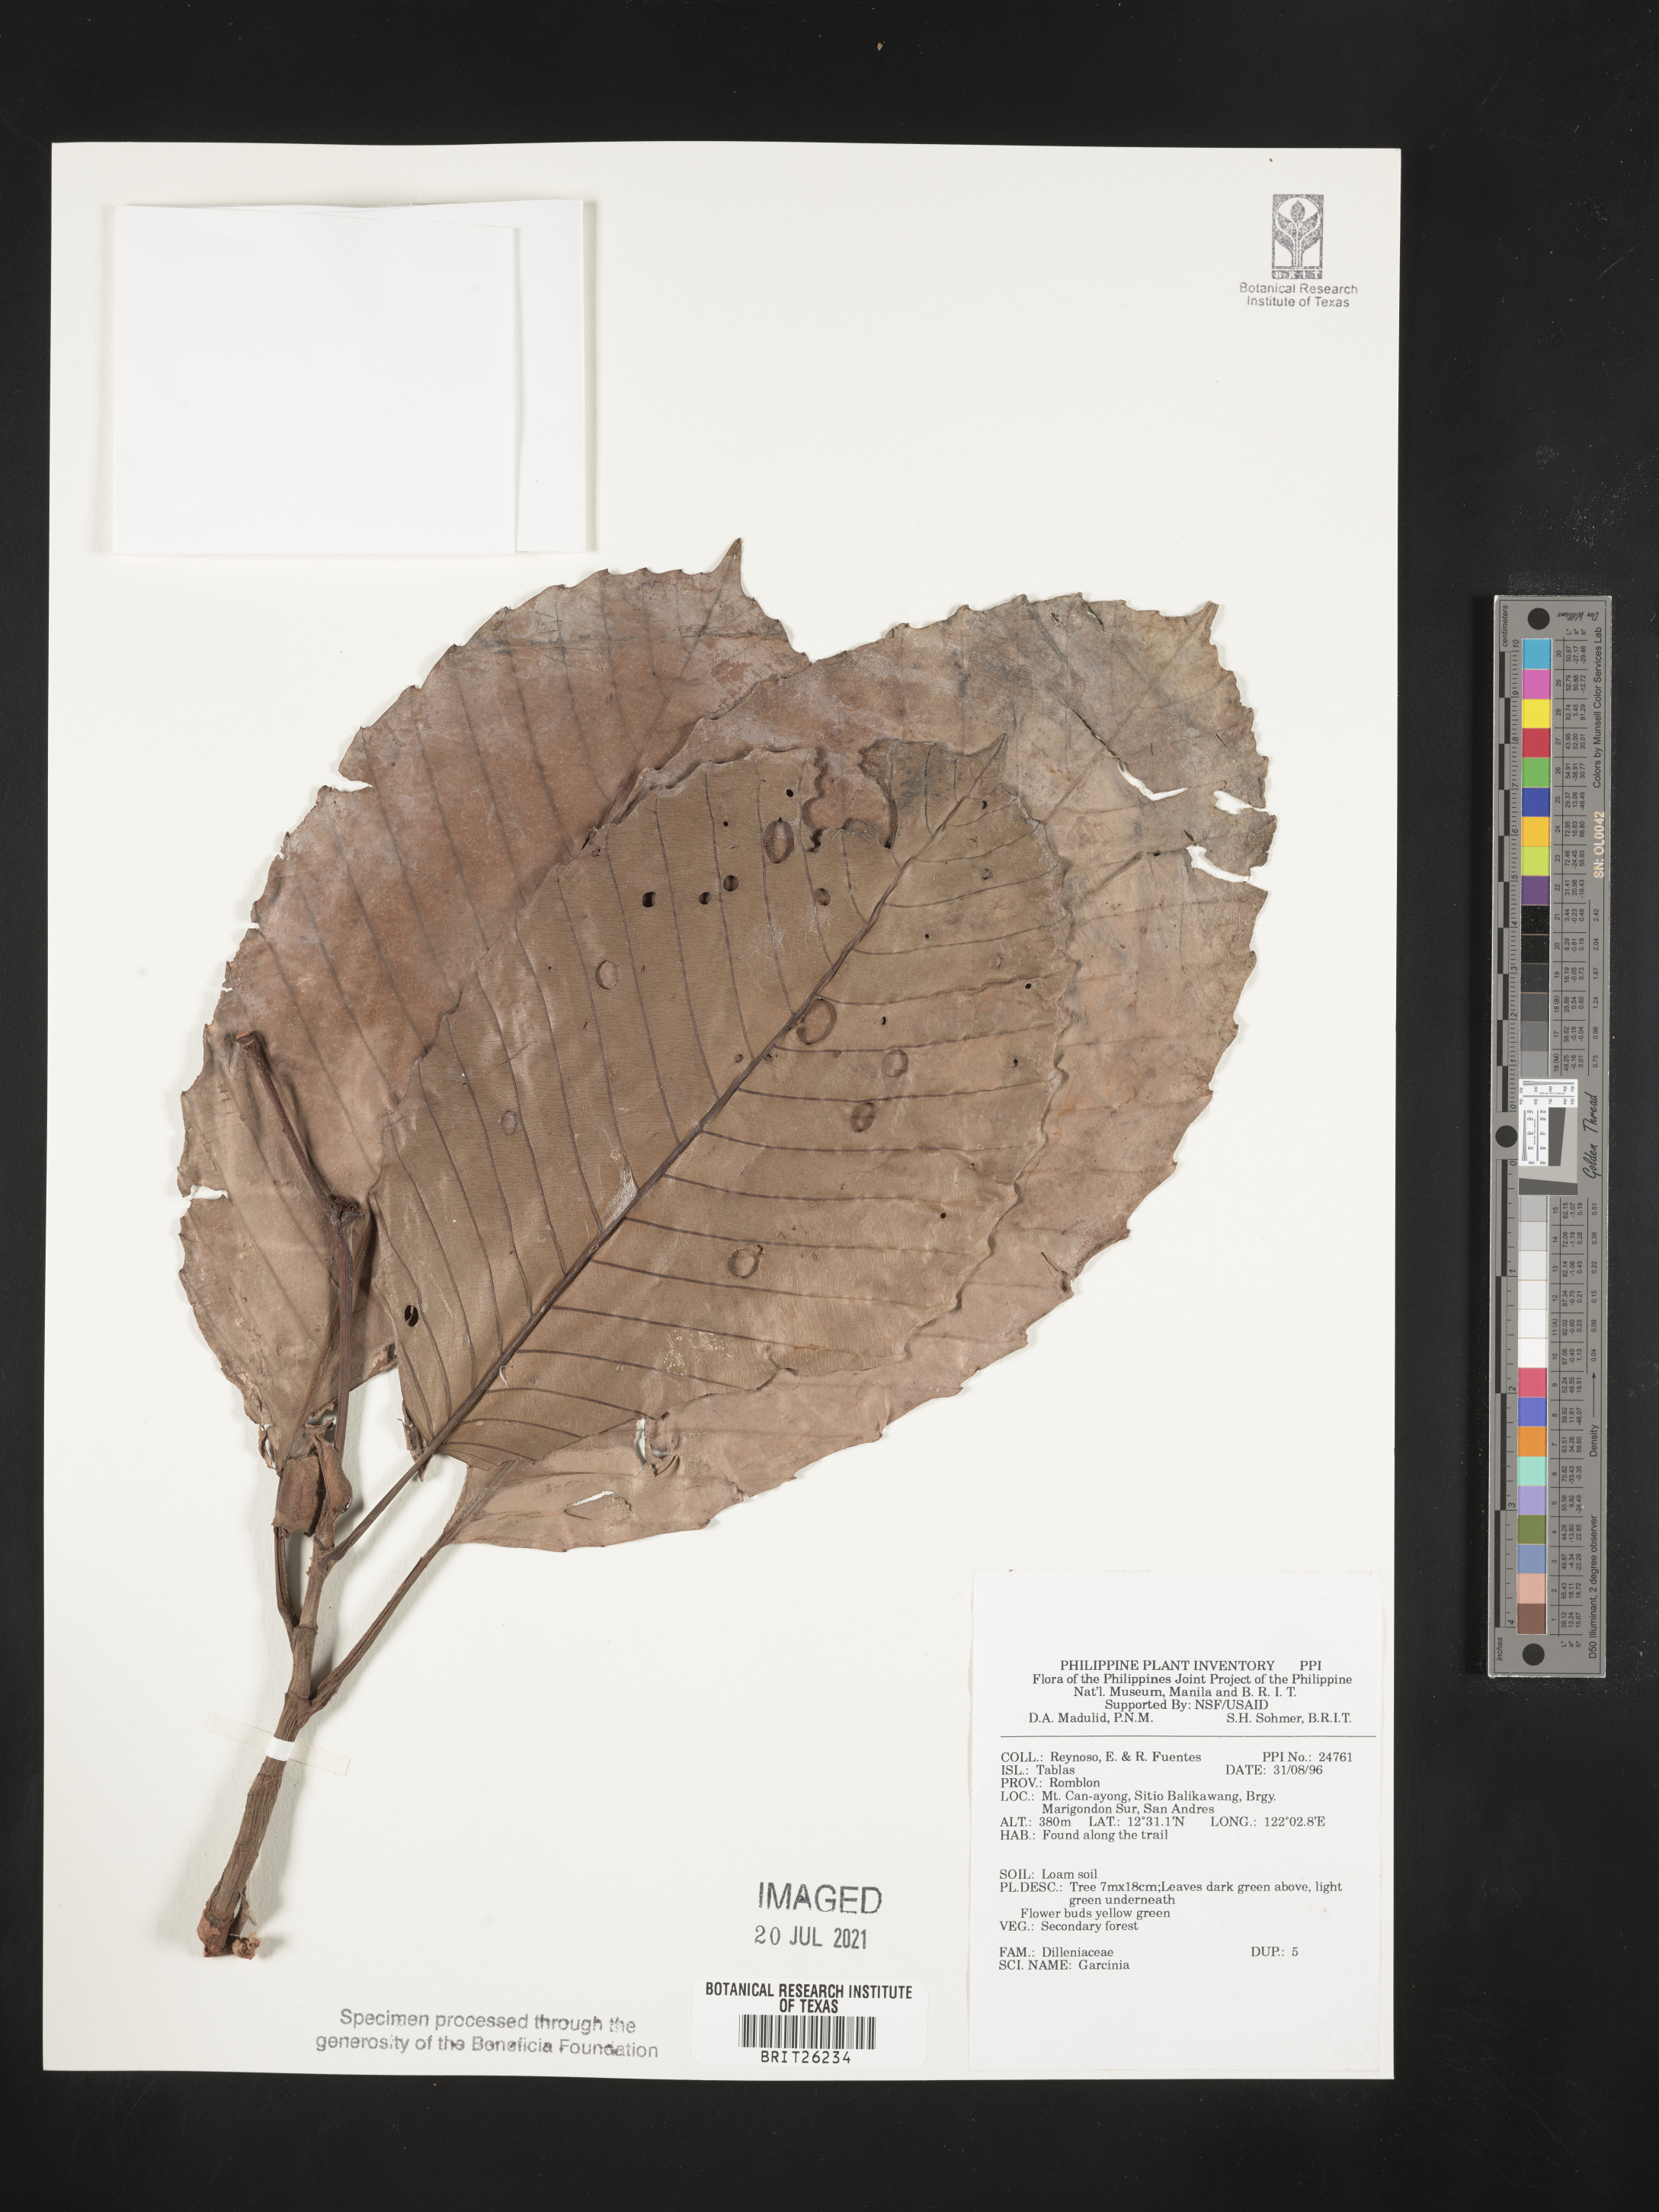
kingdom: Plantae
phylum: Tracheophyta
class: Magnoliopsida
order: Malpighiales
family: Clusiaceae
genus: Garcinia
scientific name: Garcinia
